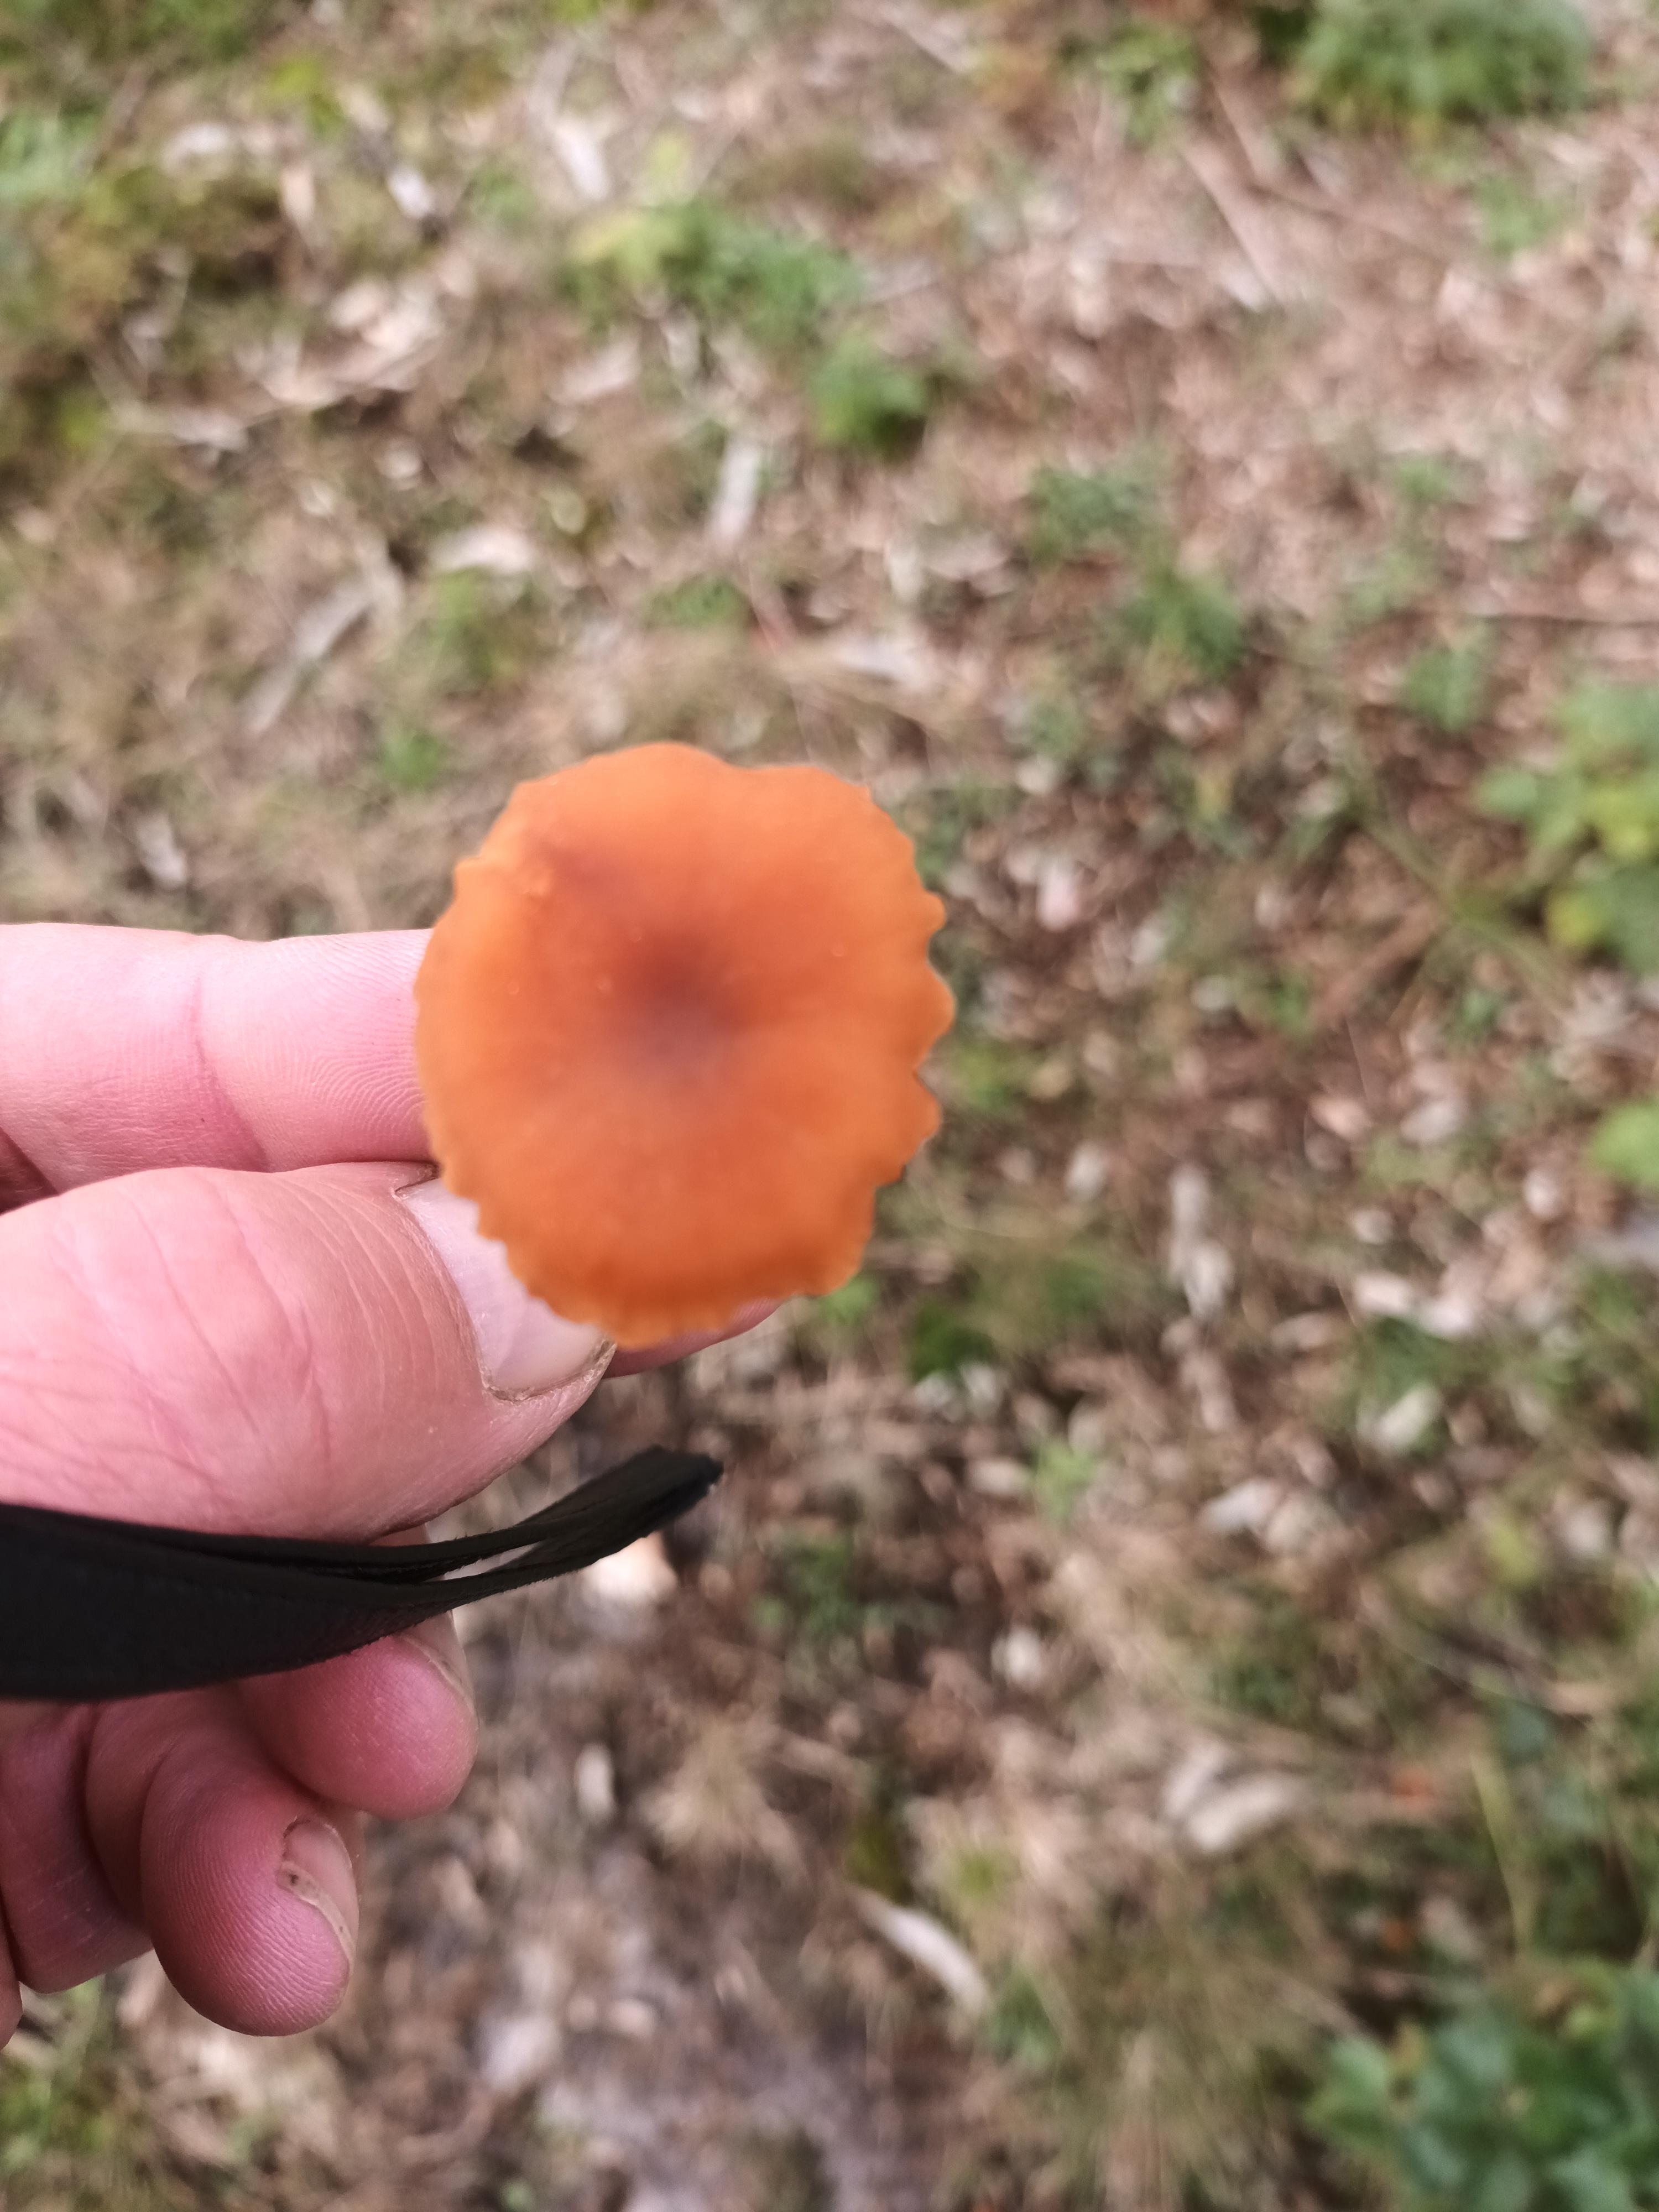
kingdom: Fungi
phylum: Basidiomycota
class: Agaricomycetes
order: Agaricales
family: Hydnangiaceae
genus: Laccaria
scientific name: Laccaria
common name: ametysthat
